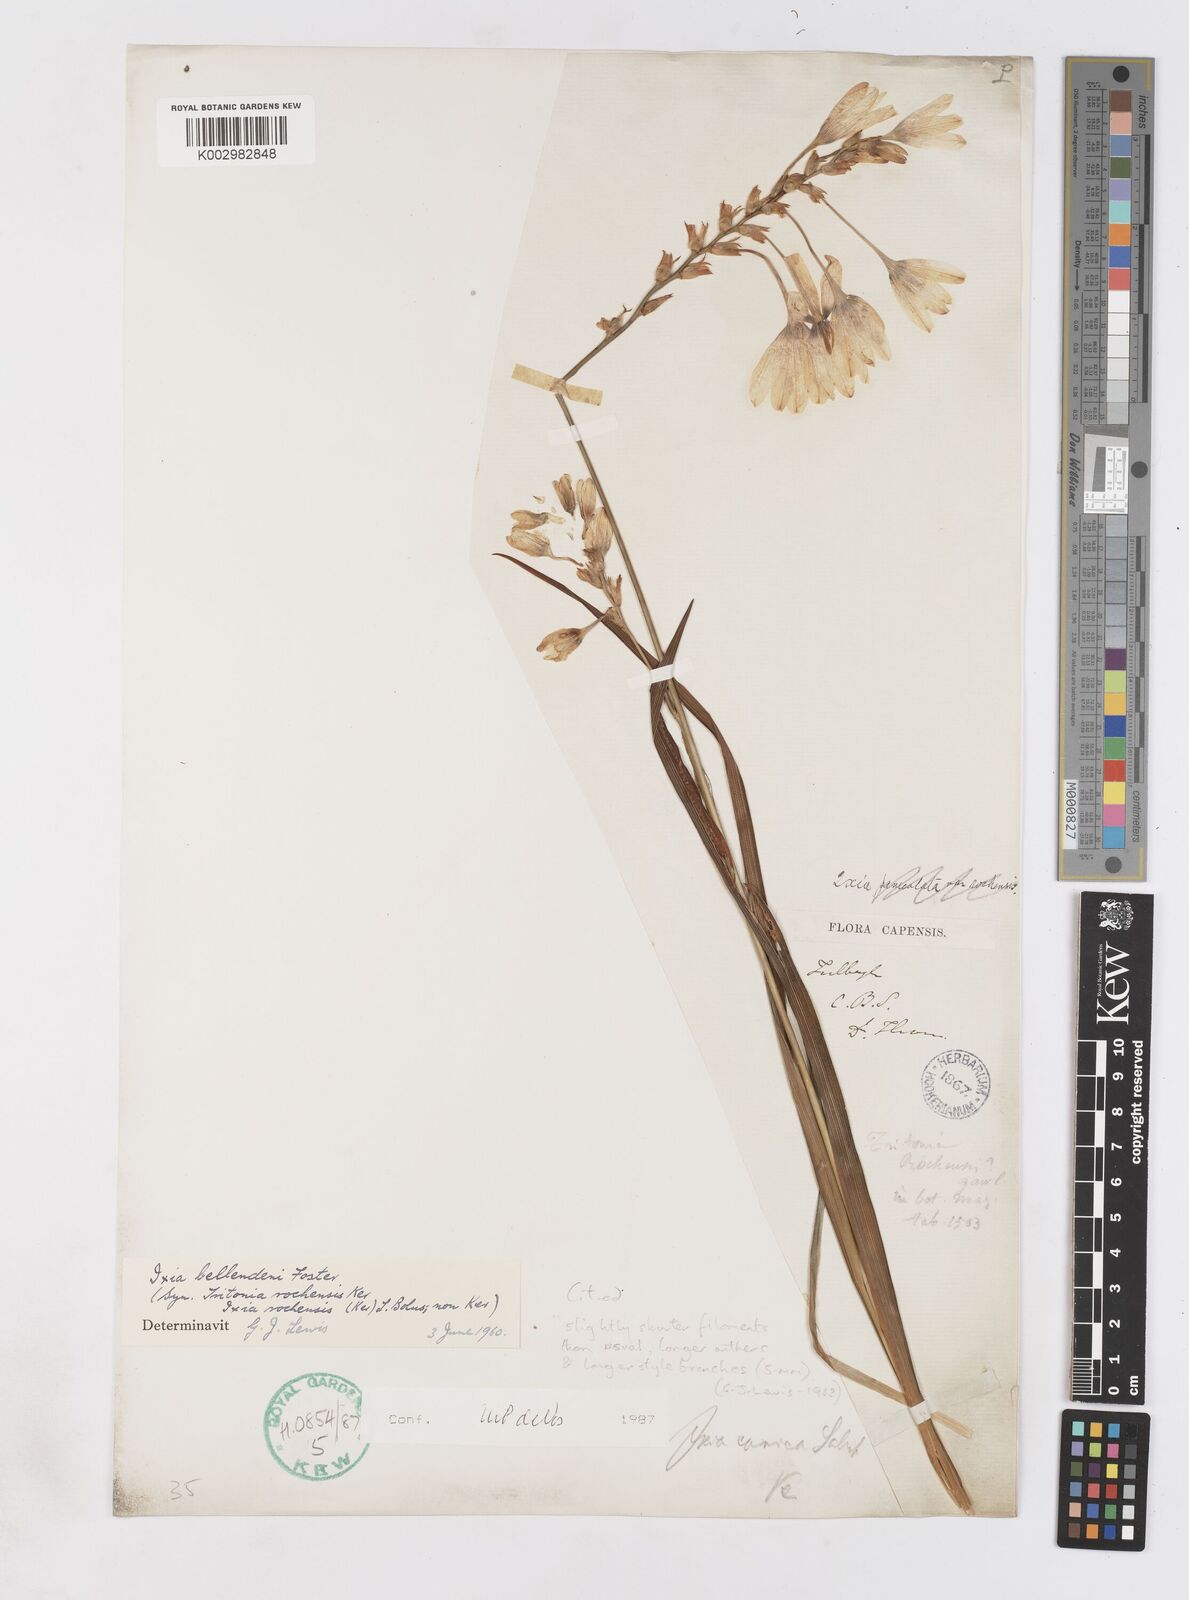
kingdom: Plantae
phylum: Tracheophyta
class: Liliopsida
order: Asparagales
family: Iridaceae
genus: Ixia
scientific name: Ixia bellendenii
